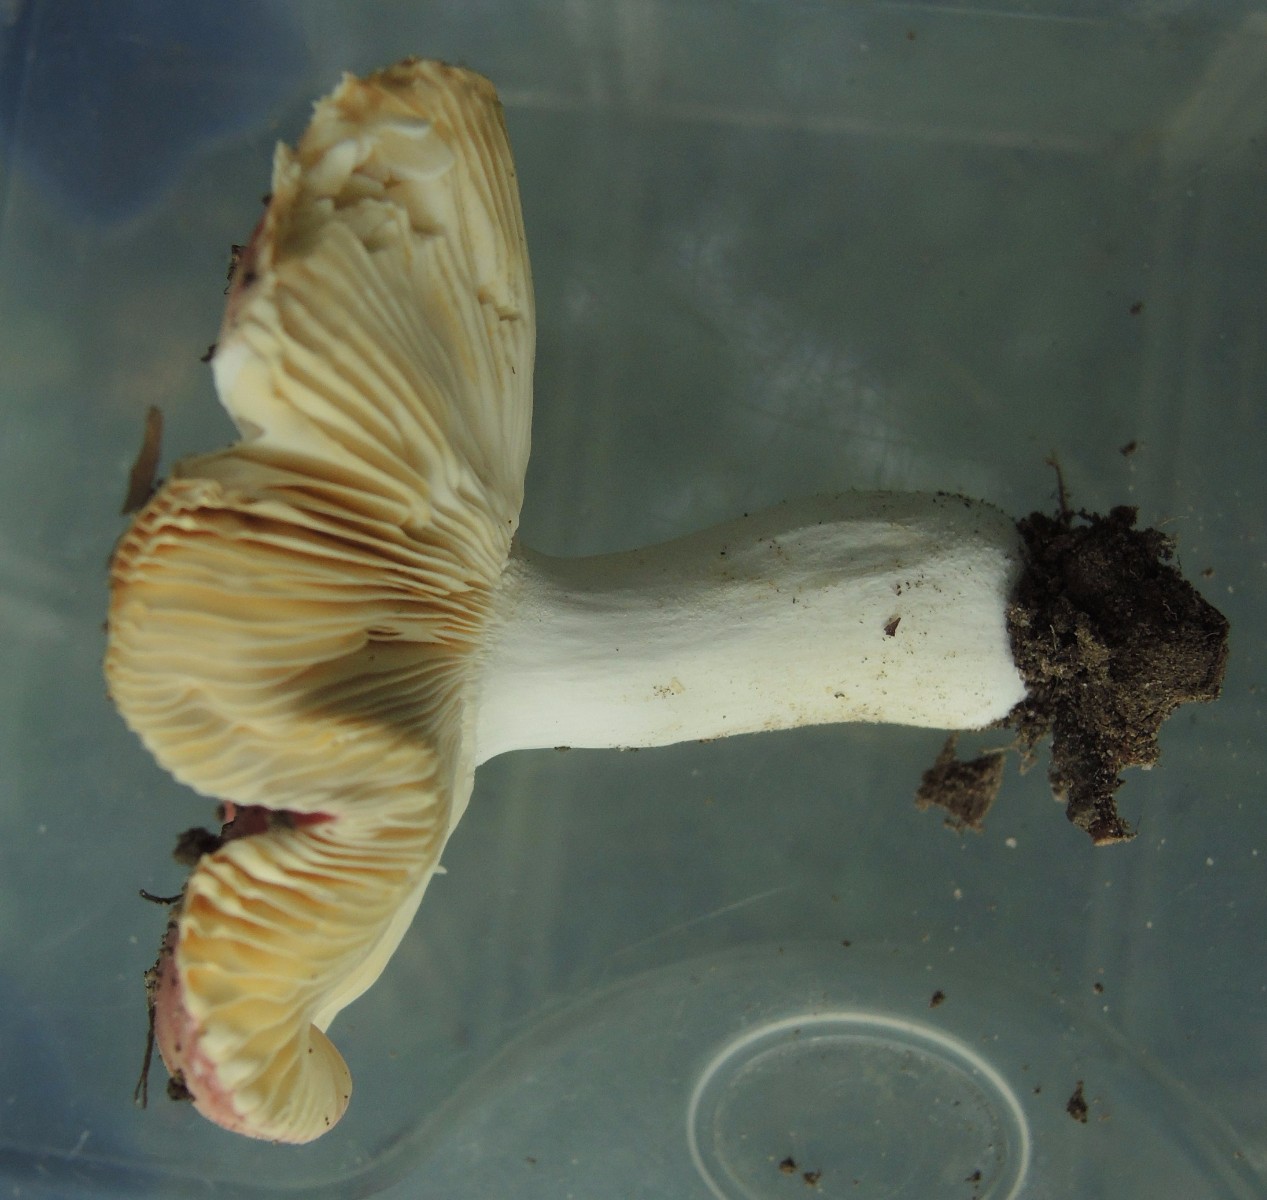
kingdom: Fungi
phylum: Basidiomycota
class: Agaricomycetes
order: Russulales
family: Russulaceae
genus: Russula
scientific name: Russula veternosa
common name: blødkødet skørhat
